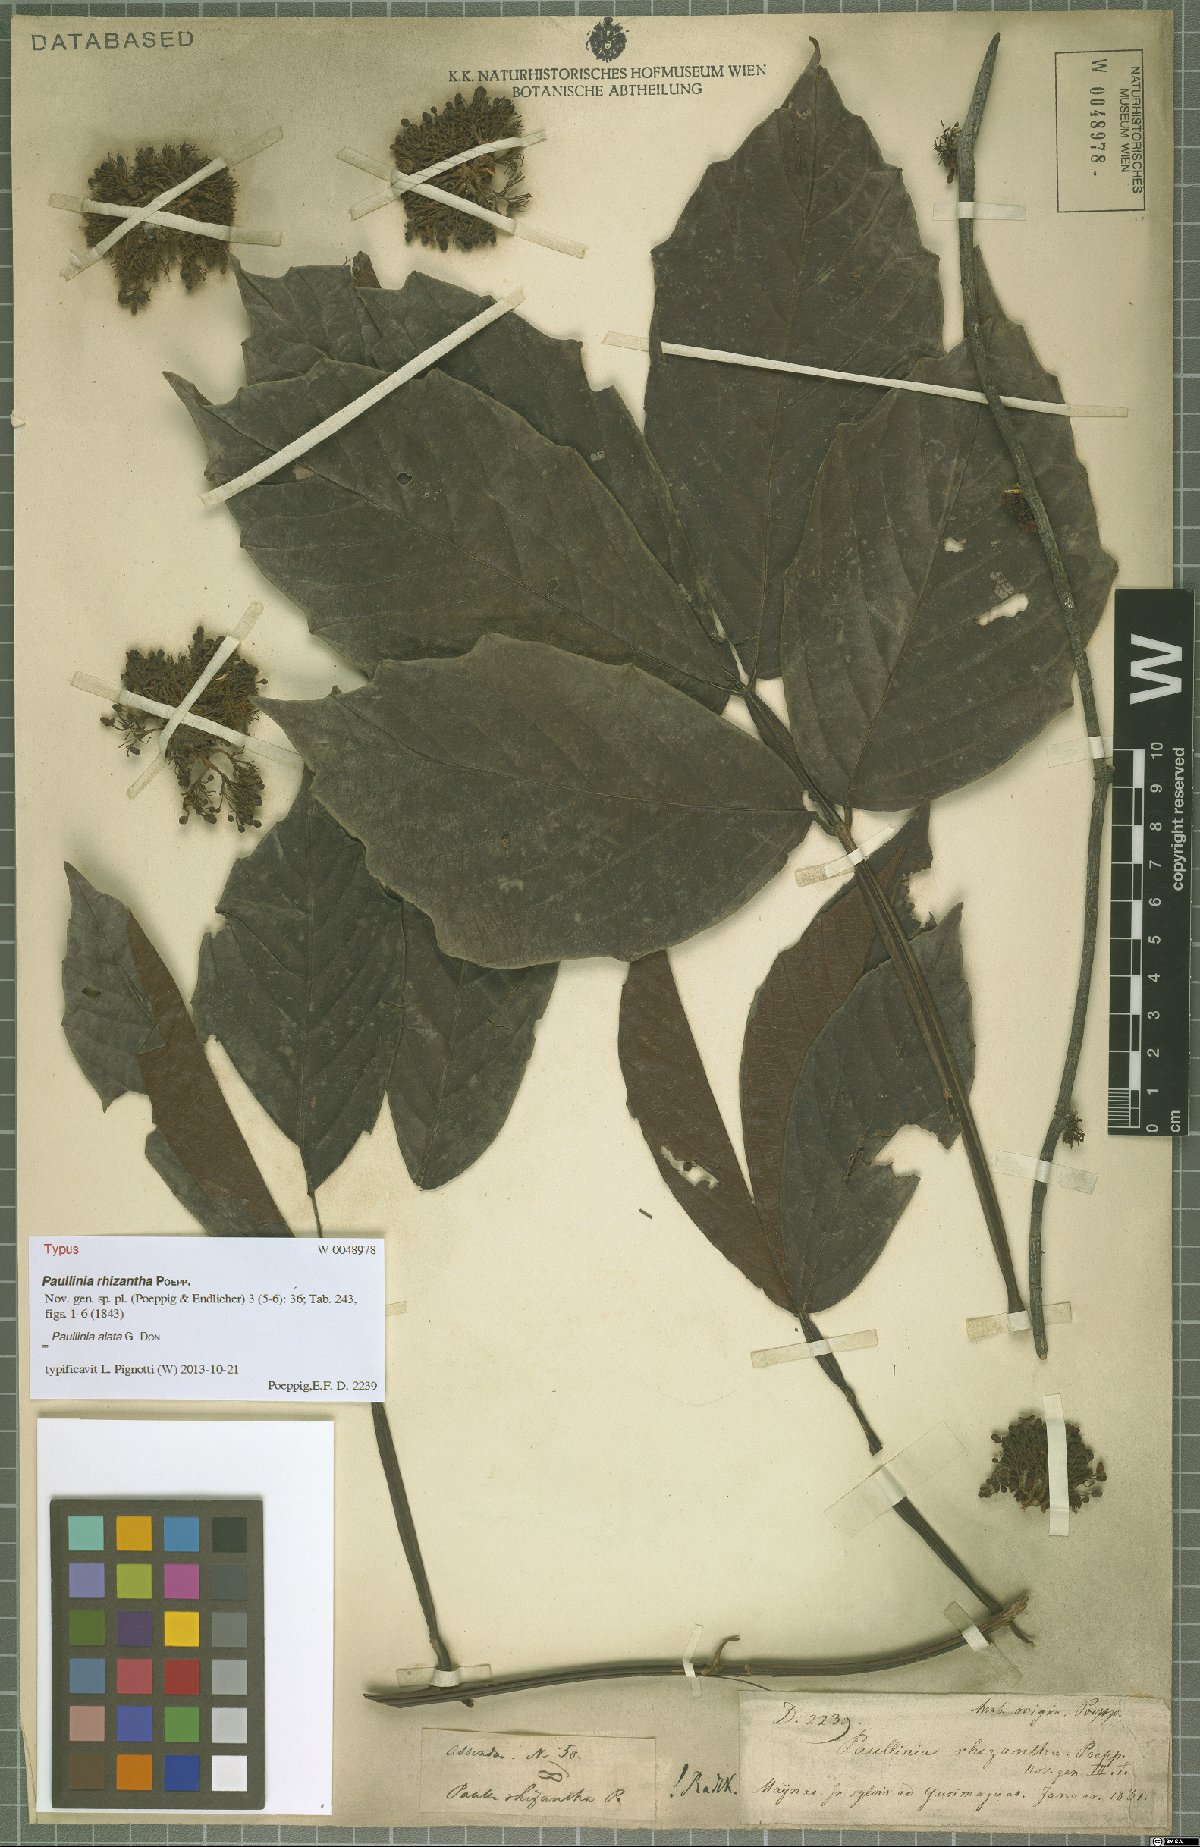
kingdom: Plantae
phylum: Tracheophyta
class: Magnoliopsida
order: Sapindales
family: Sapindaceae
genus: Paullinia
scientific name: Paullinia alata
